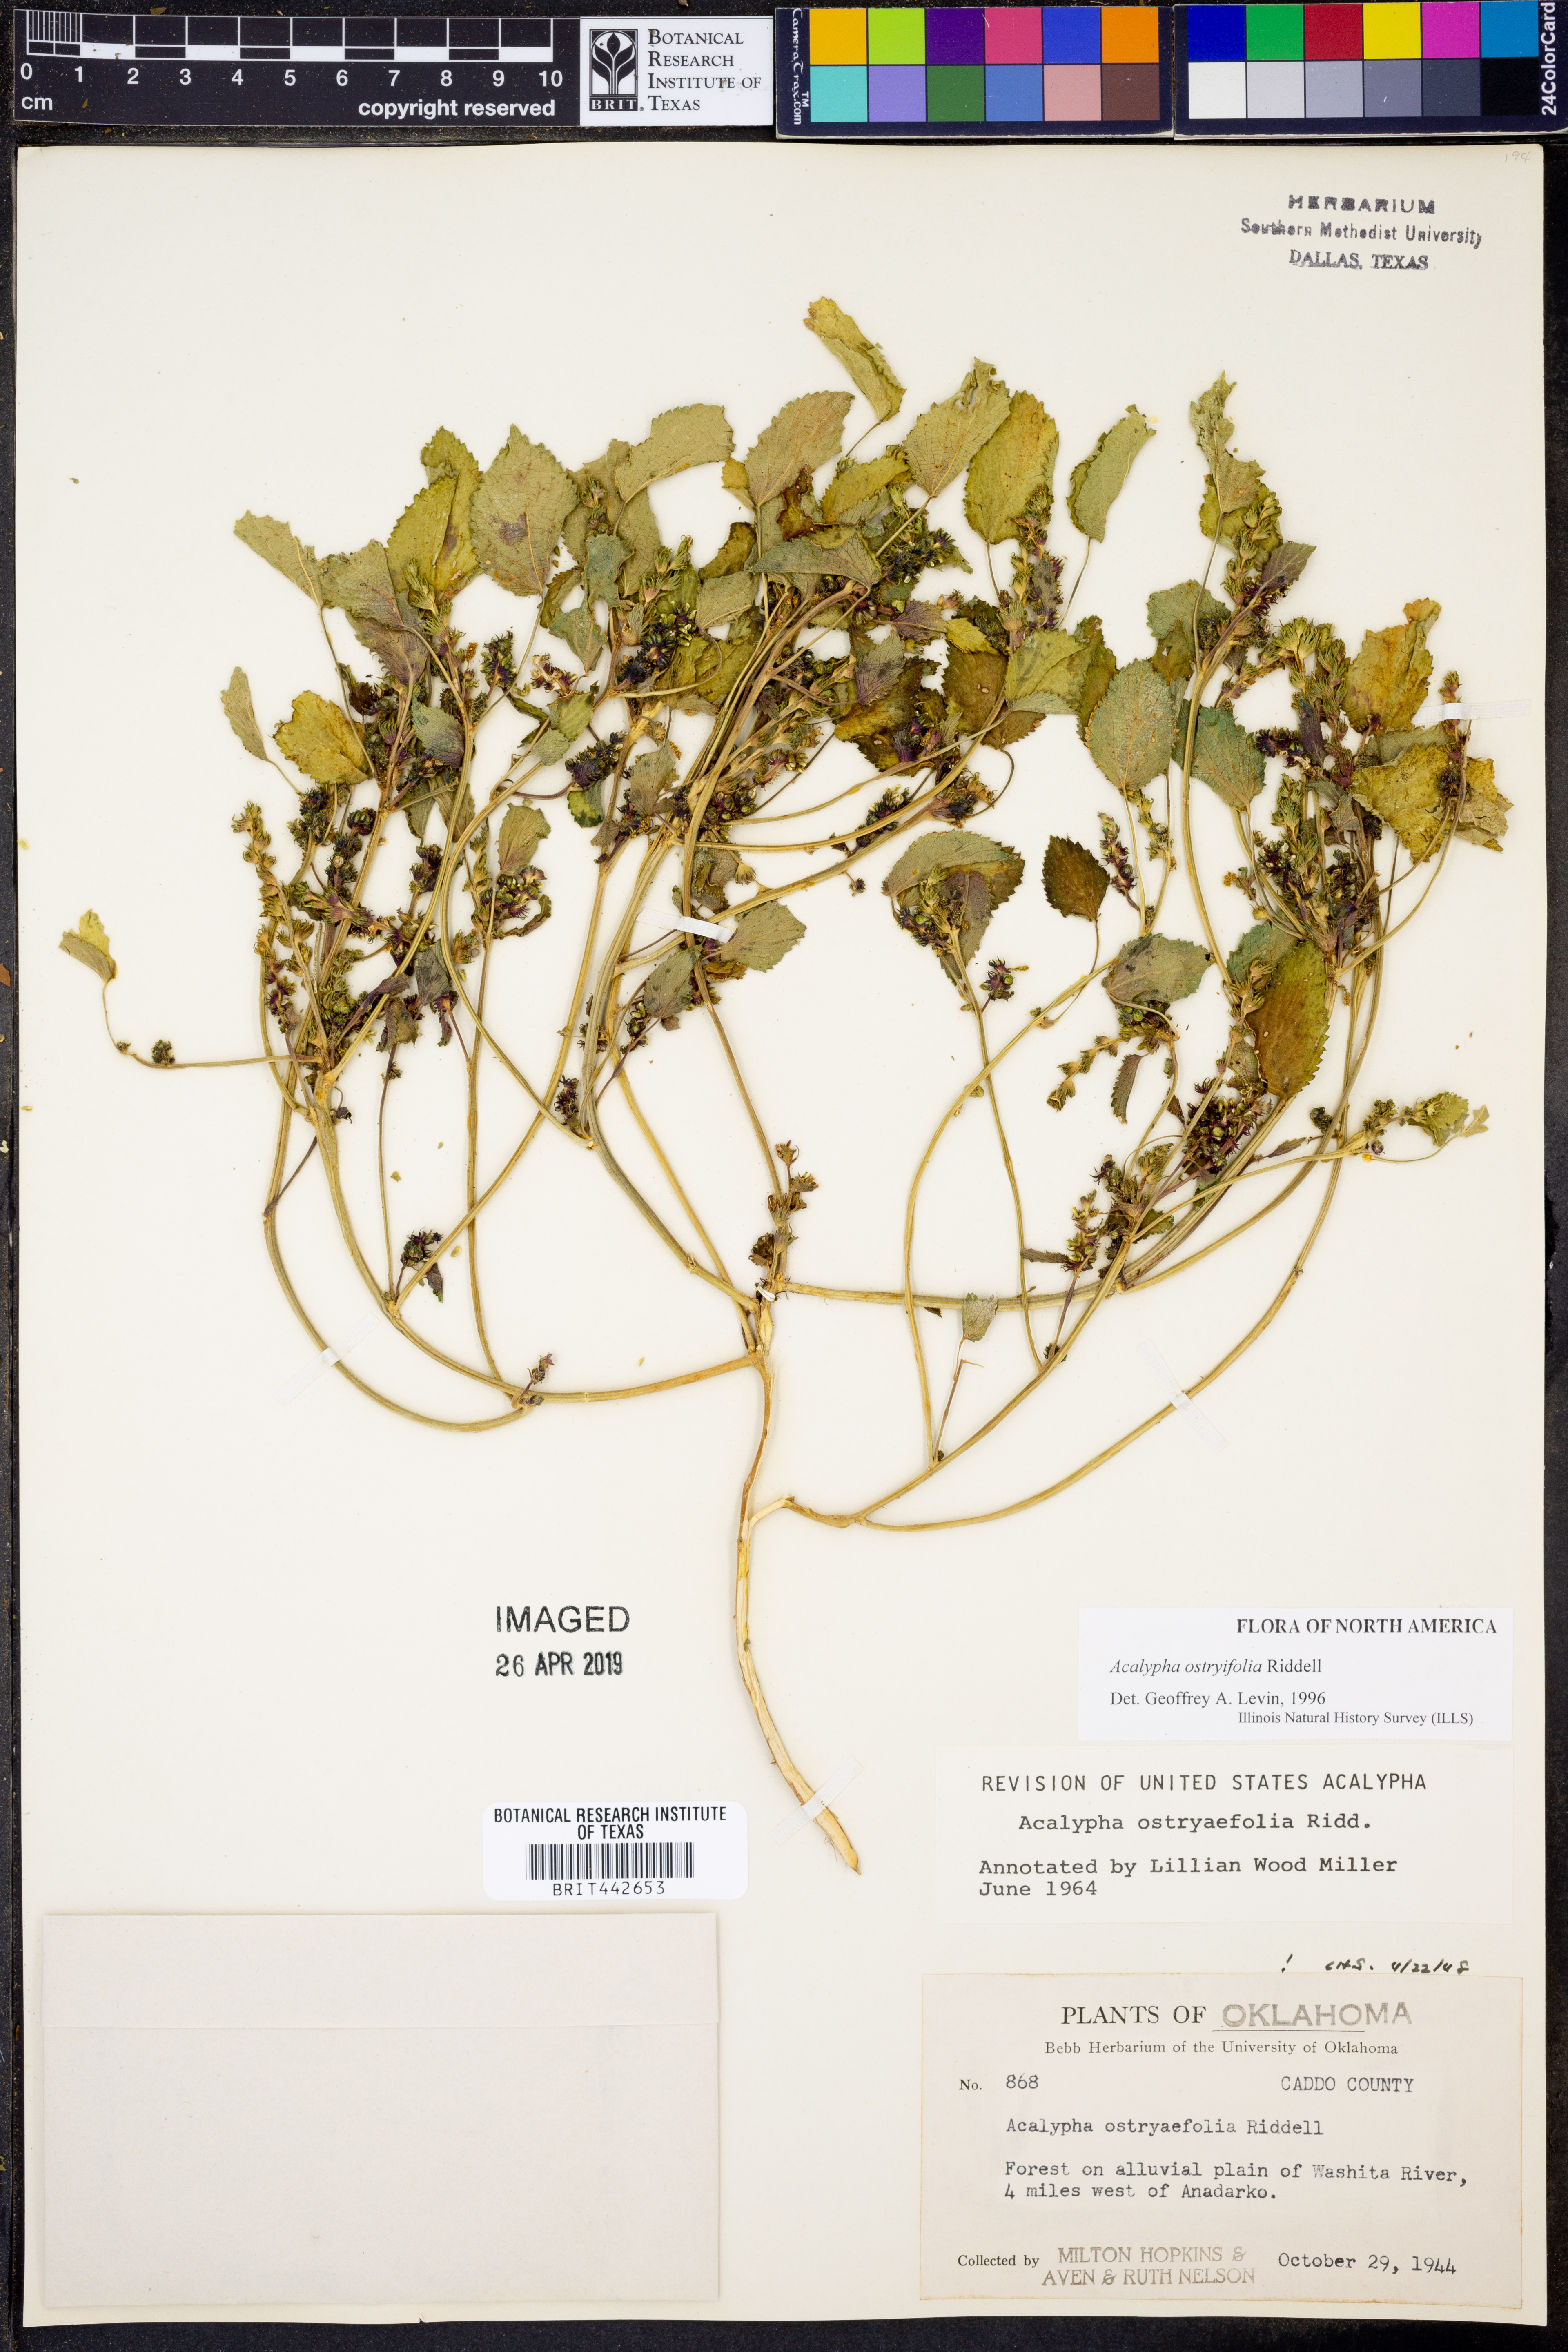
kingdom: Plantae
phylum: Tracheophyta
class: Magnoliopsida
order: Malpighiales
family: Euphorbiaceae
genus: Acalypha
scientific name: Acalypha persimilis
